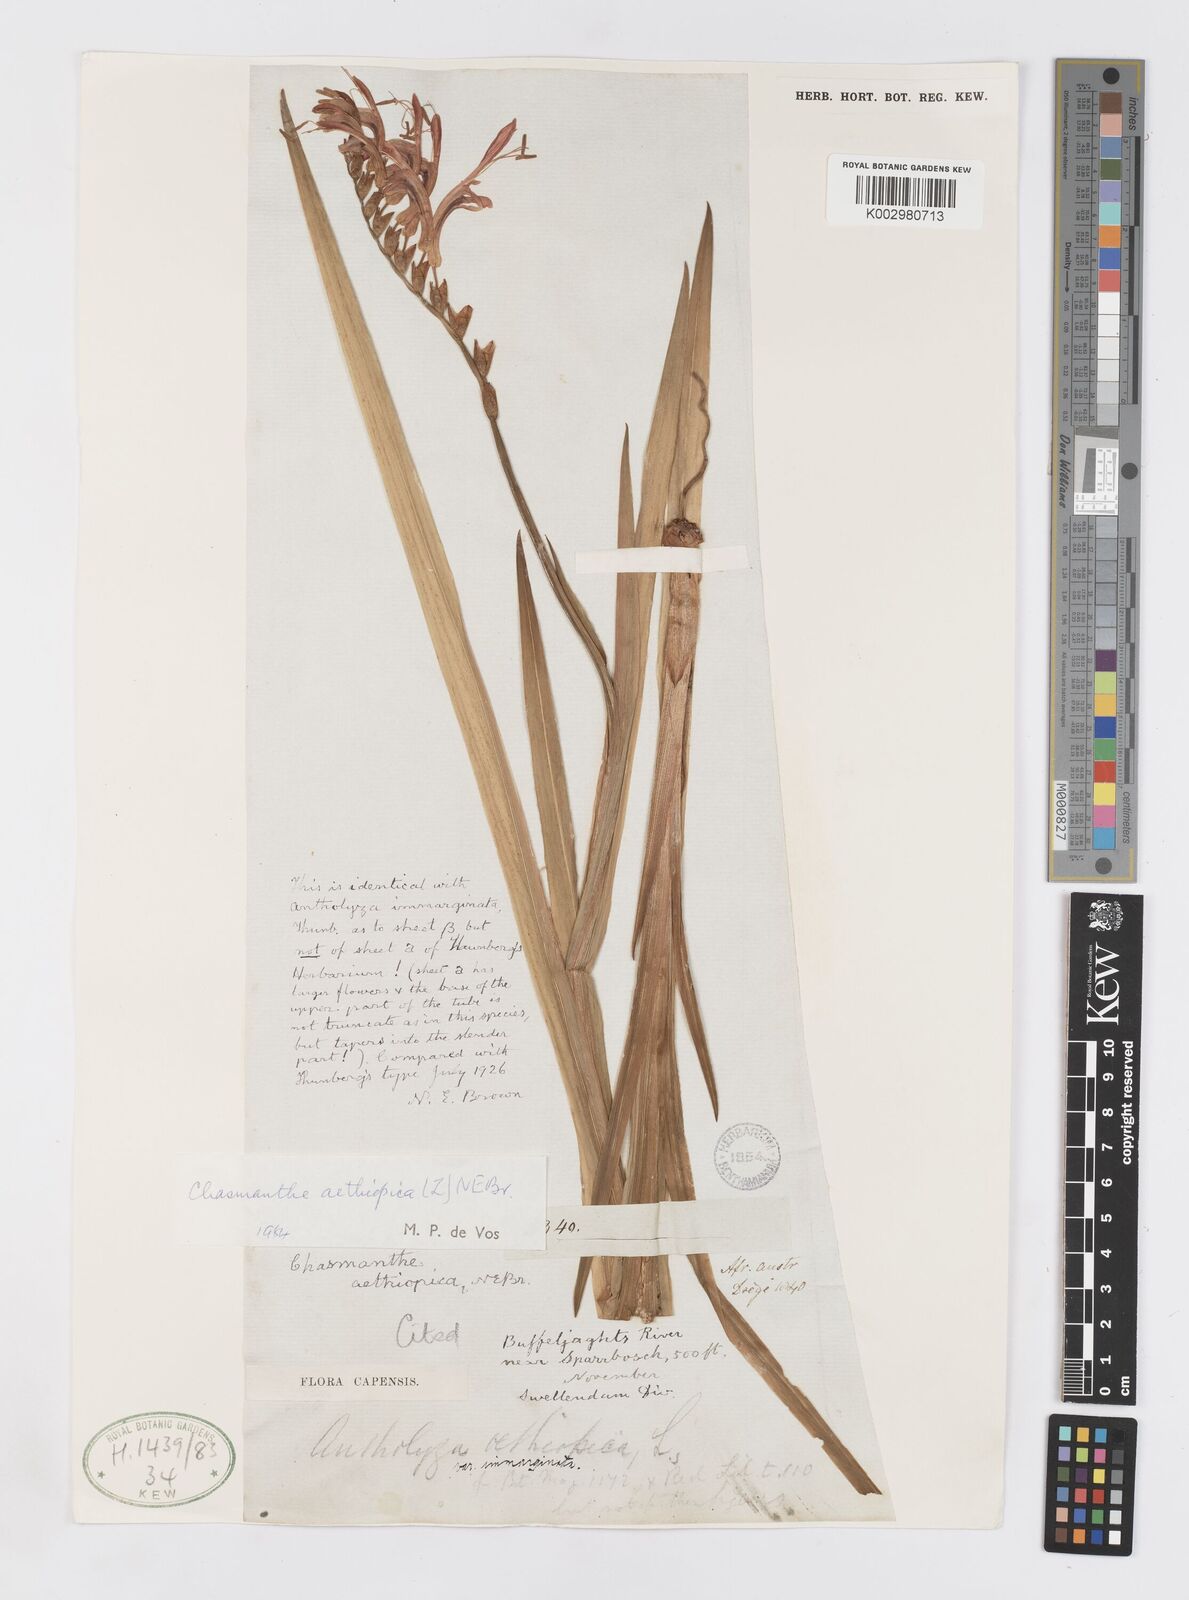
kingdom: Plantae
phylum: Tracheophyta
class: Liliopsida
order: Asparagales
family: Iridaceae
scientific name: Iridaceae
